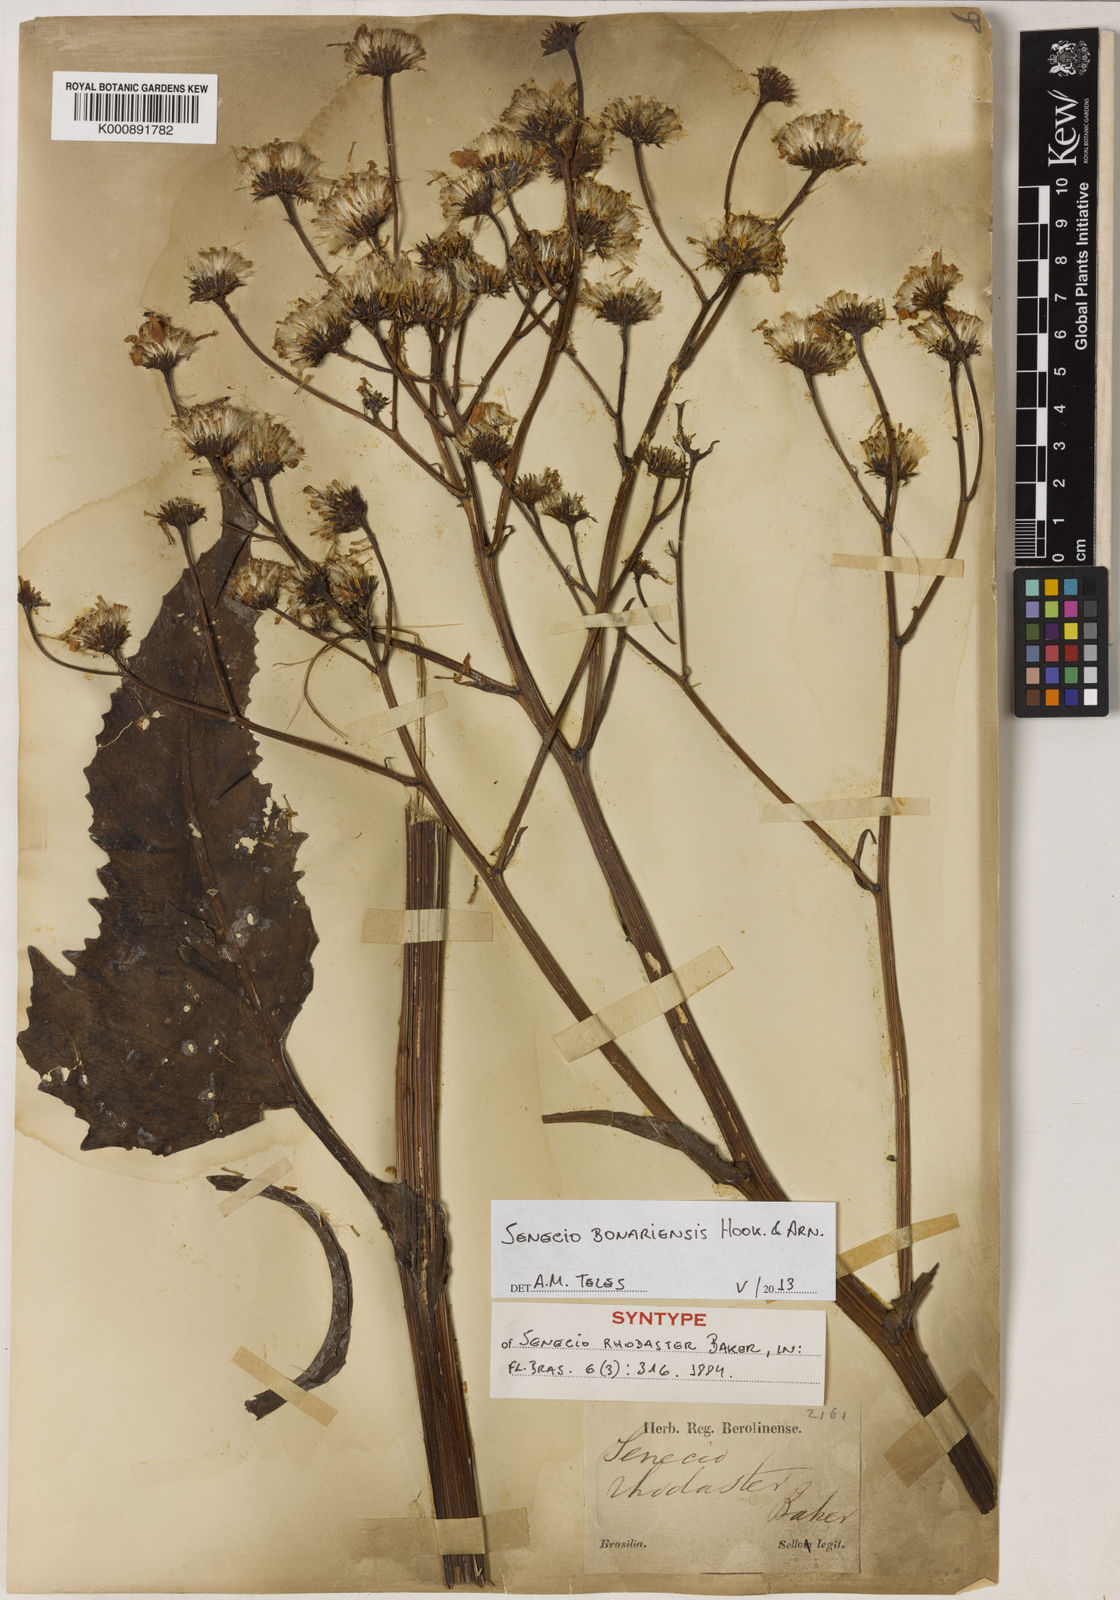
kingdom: Plantae
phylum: Tracheophyta
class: Magnoliopsida
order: Asterales
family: Asteraceae
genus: Senecio
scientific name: Senecio bonariensis
